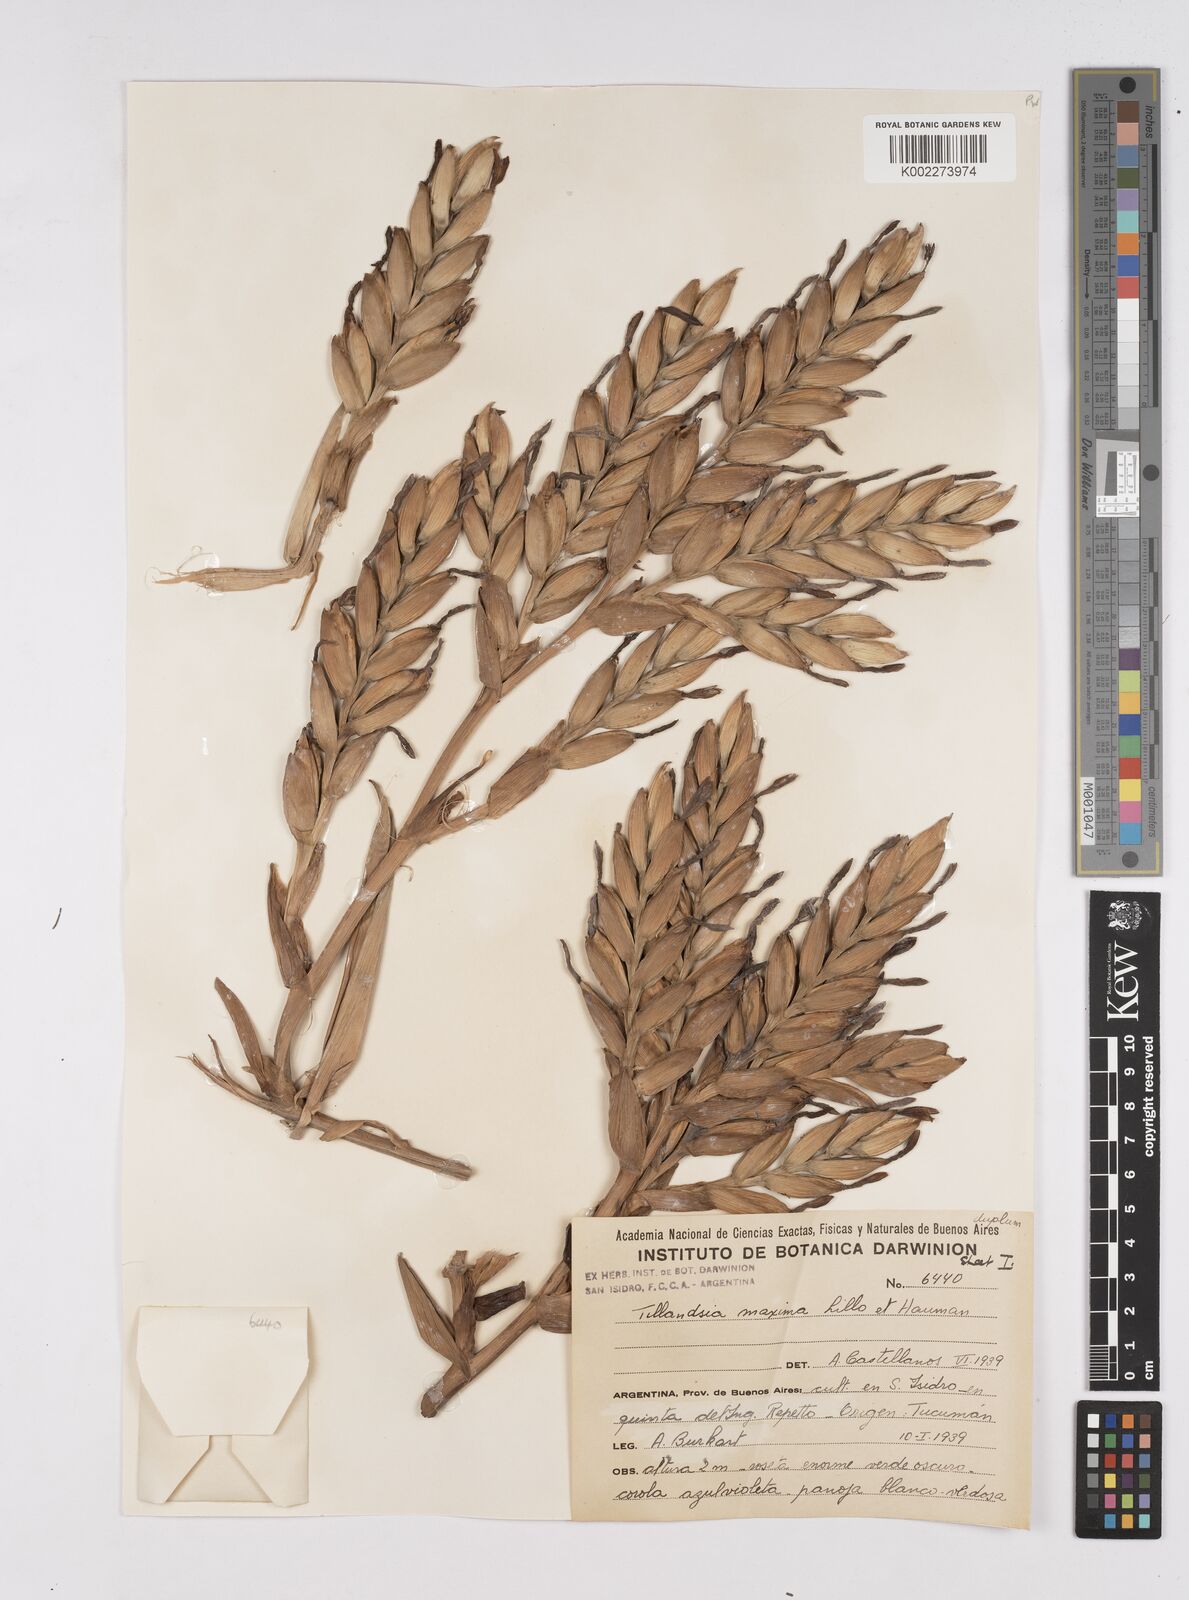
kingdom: Plantae
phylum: Tracheophyta
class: Liliopsida
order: Poales
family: Bromeliaceae
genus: Tillandsia
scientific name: Tillandsia australis
